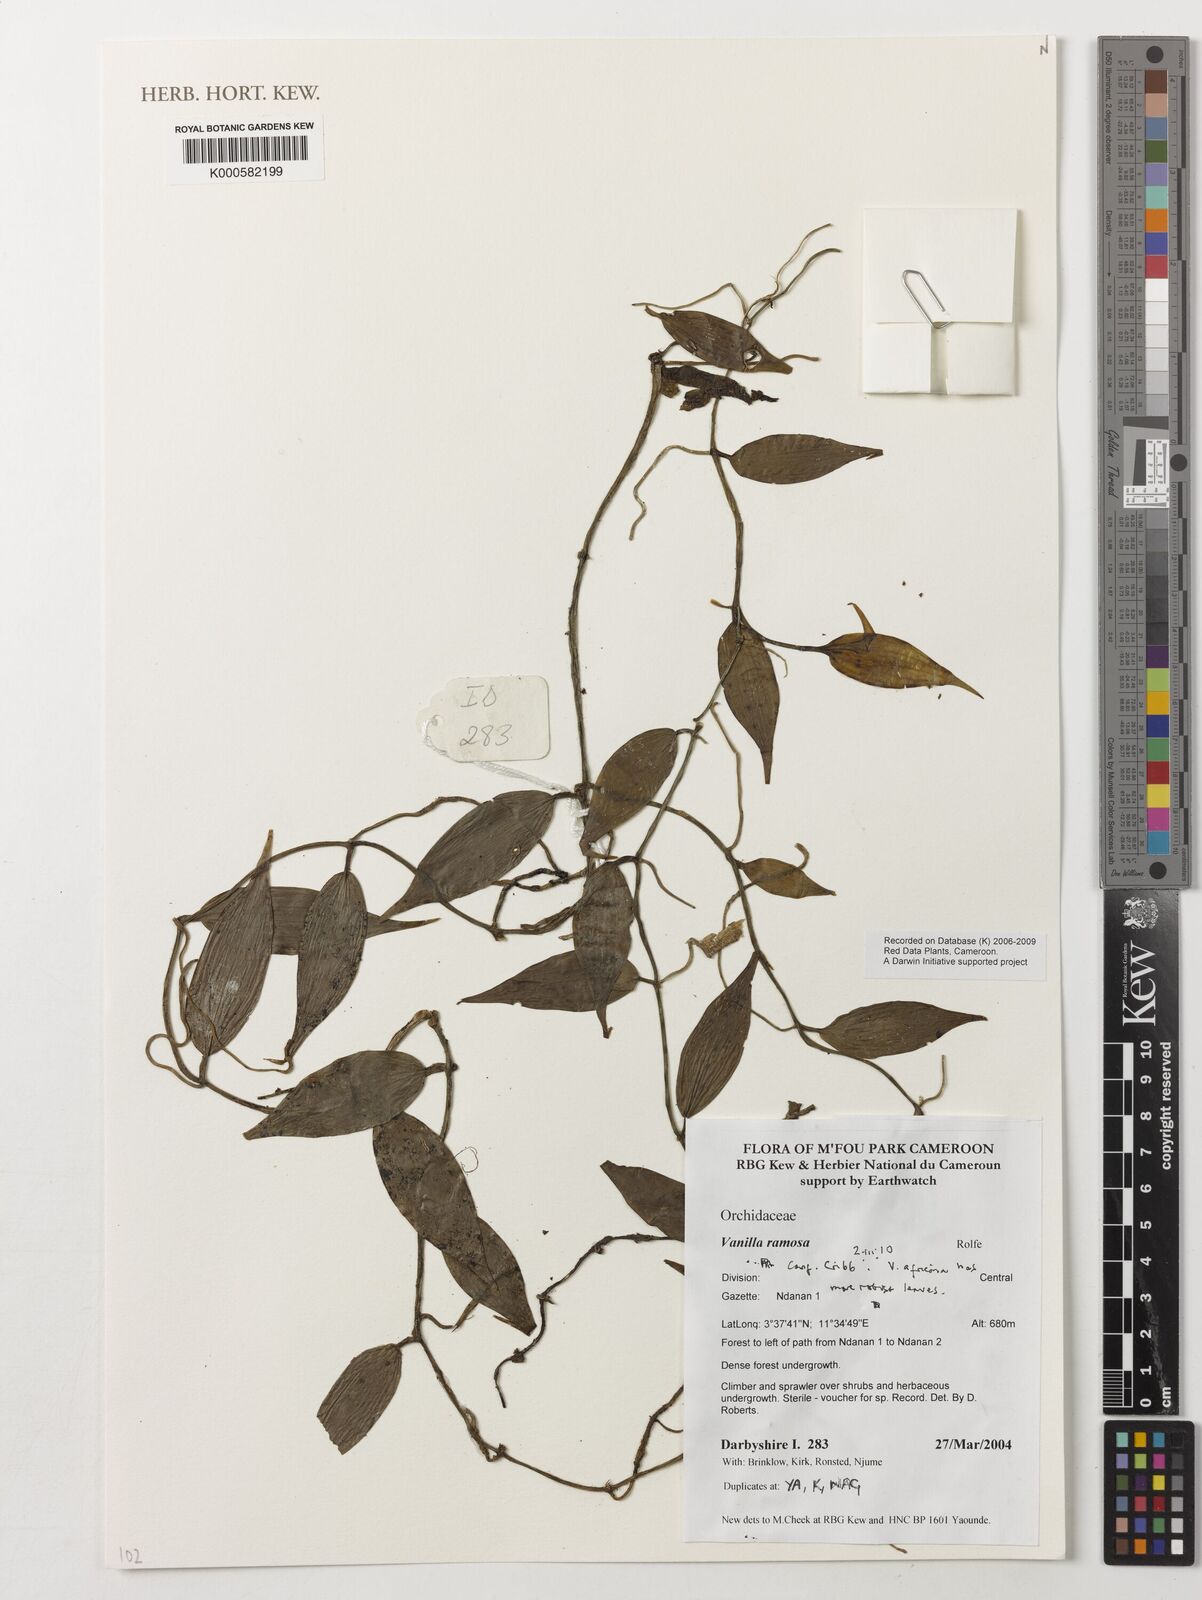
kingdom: Plantae
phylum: Tracheophyta
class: Liliopsida
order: Asparagales
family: Orchidaceae
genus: Vanilla
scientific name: Vanilla ramosa
